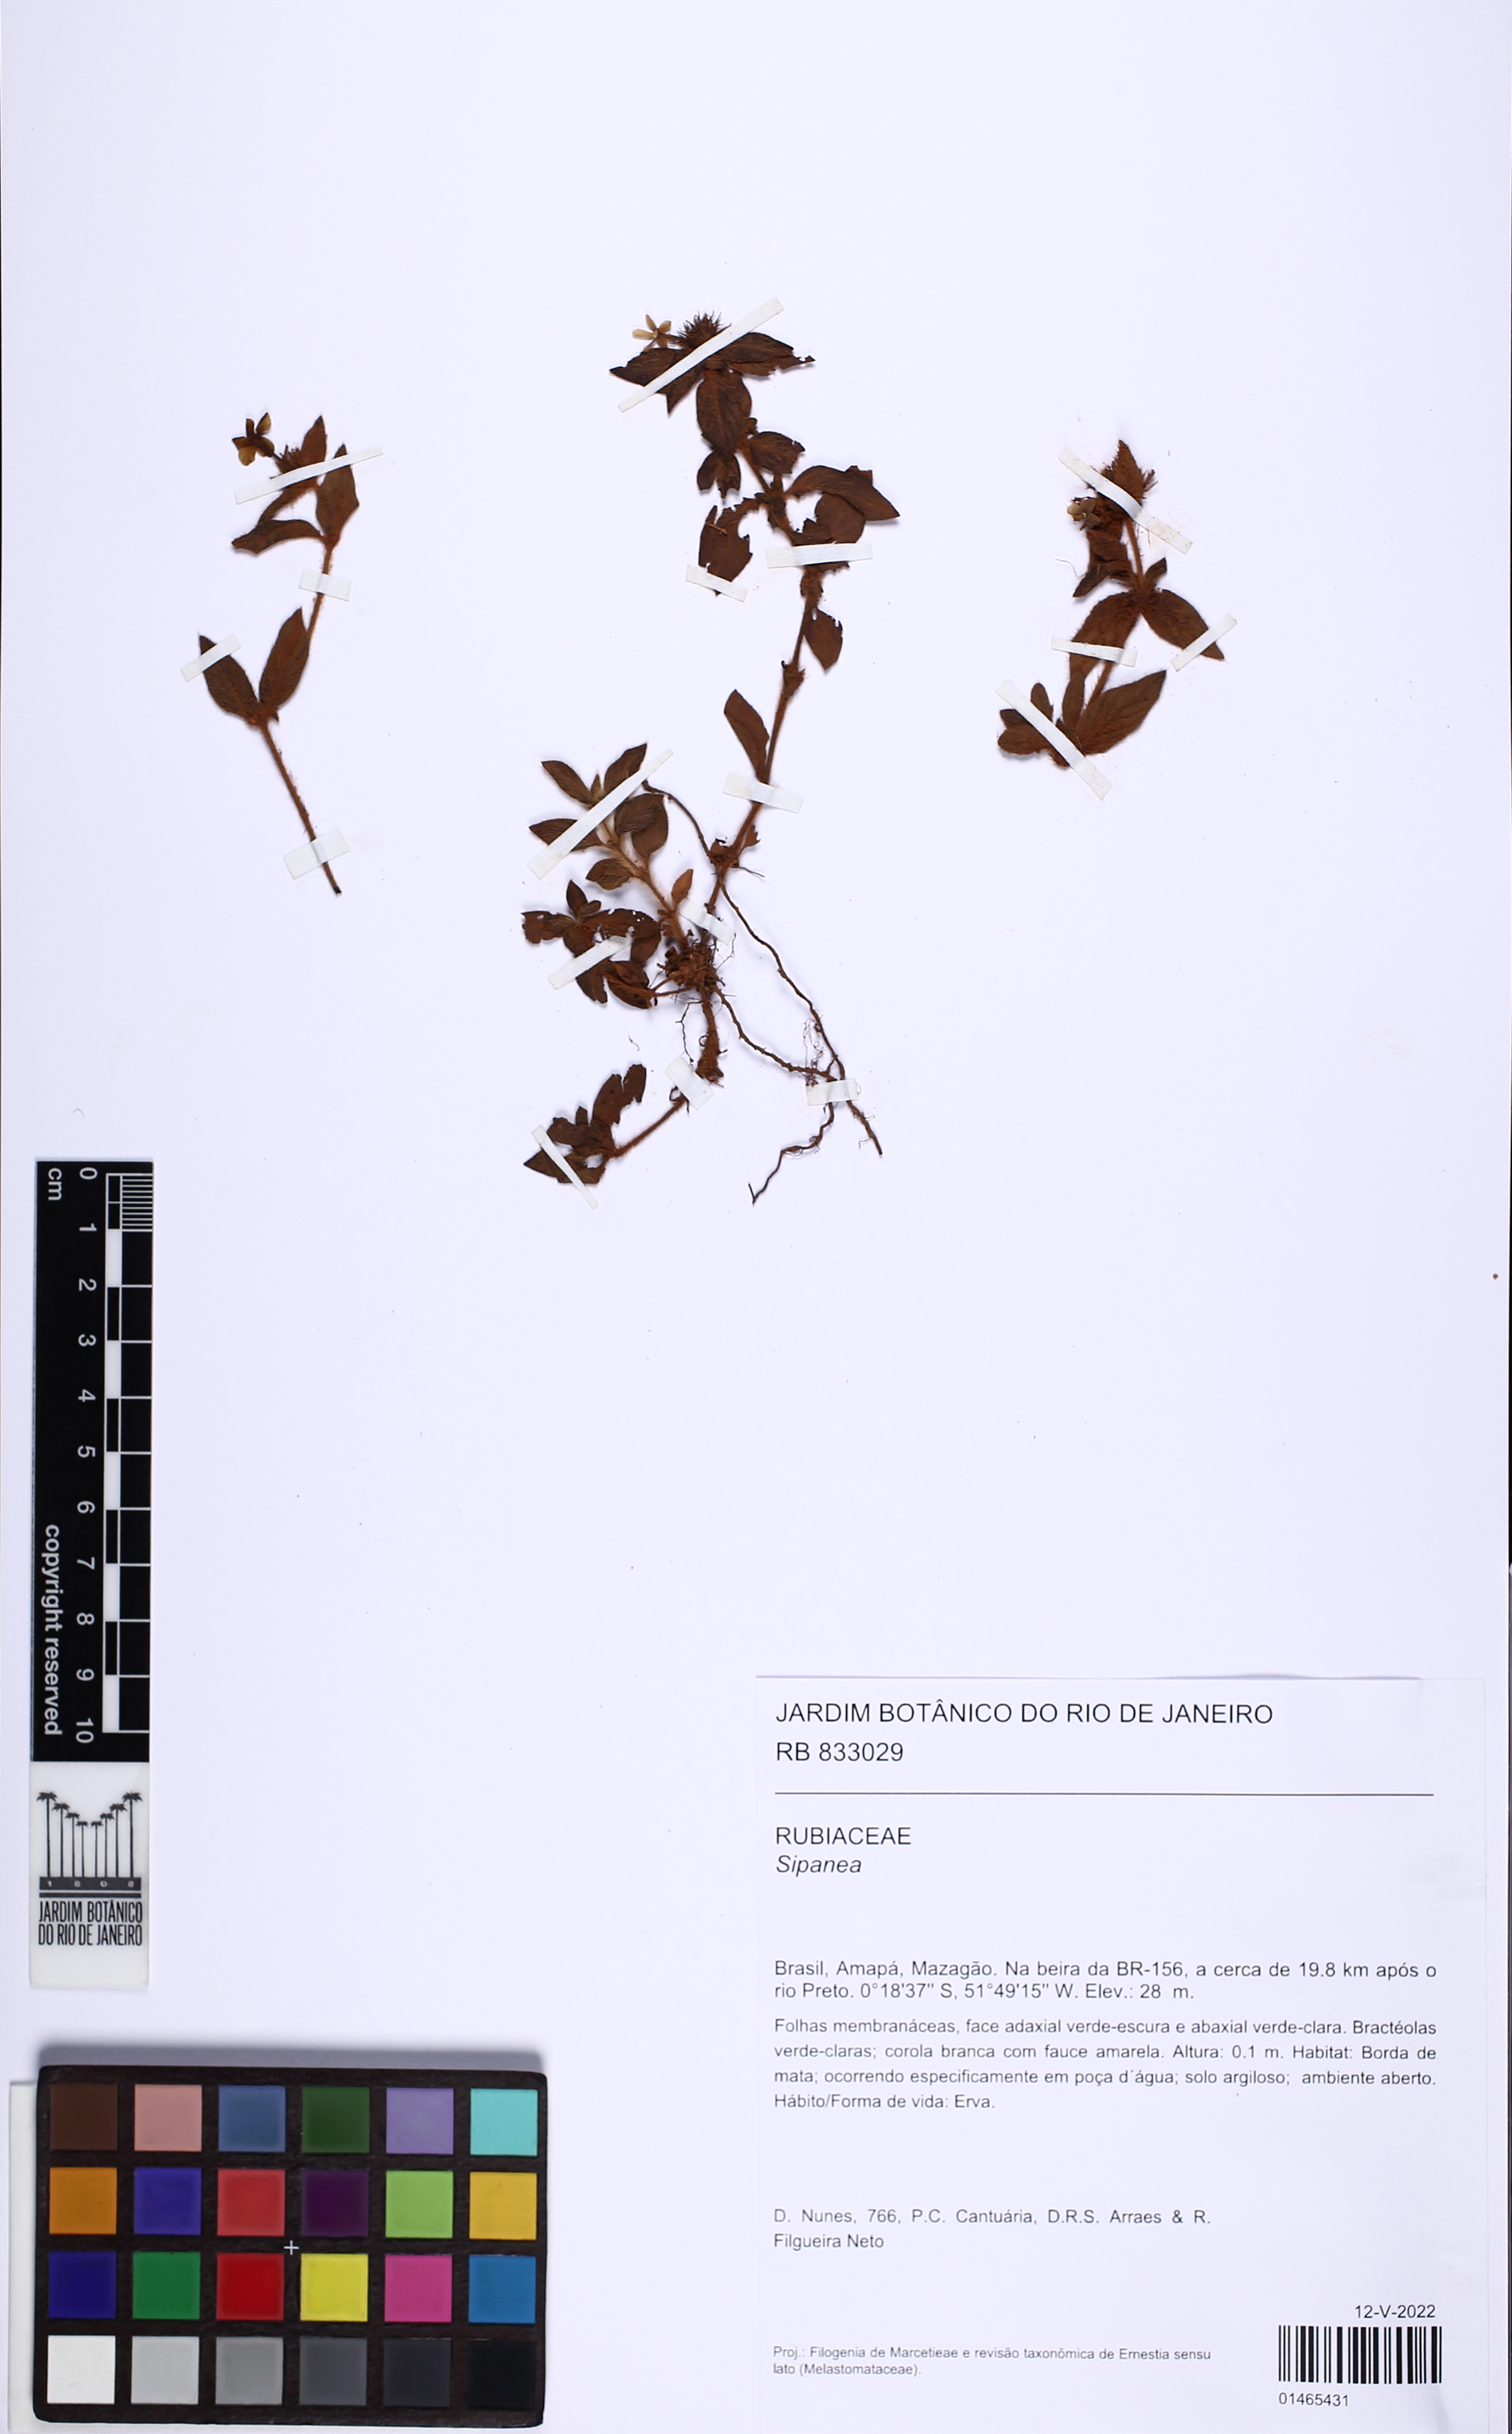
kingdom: Plantae
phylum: Tracheophyta
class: Magnoliopsida
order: Gentianales
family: Rubiaceae
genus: Sipanea
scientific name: Sipanea pratensis
